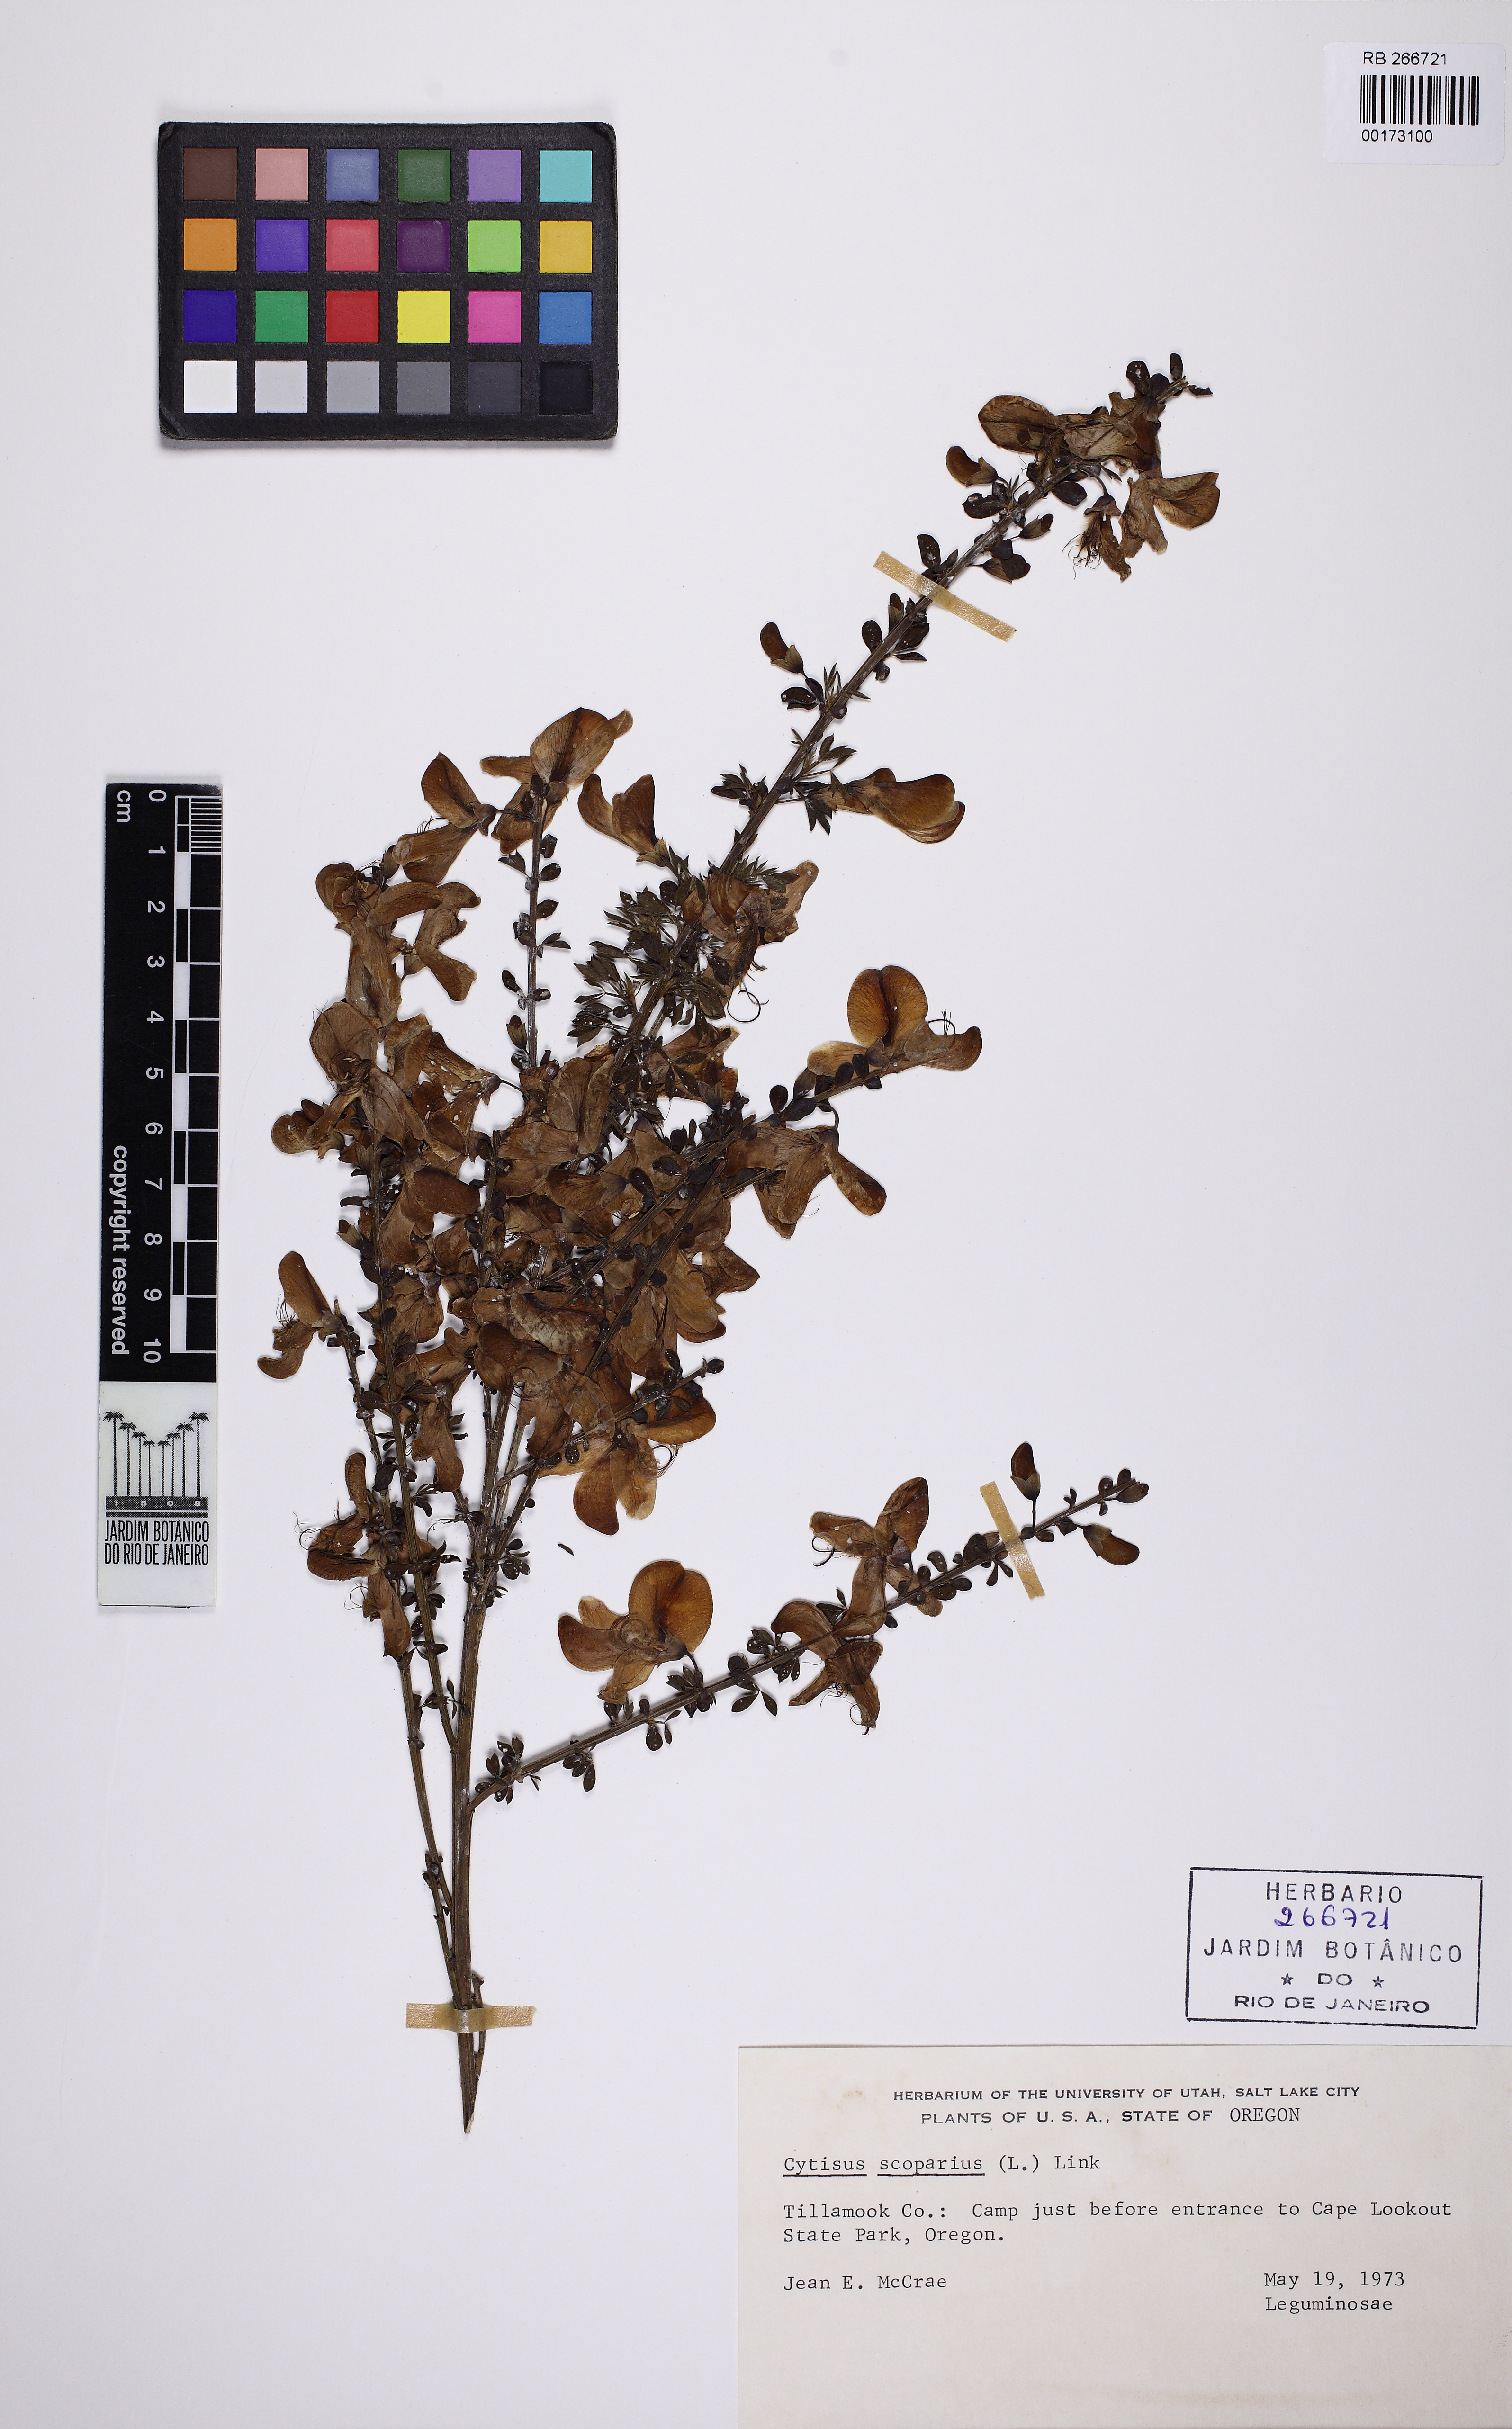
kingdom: Plantae
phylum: Tracheophyta
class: Magnoliopsida
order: Fabales
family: Fabaceae
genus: Cytisus
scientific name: Cytisus scoparius
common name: Scotch broom
